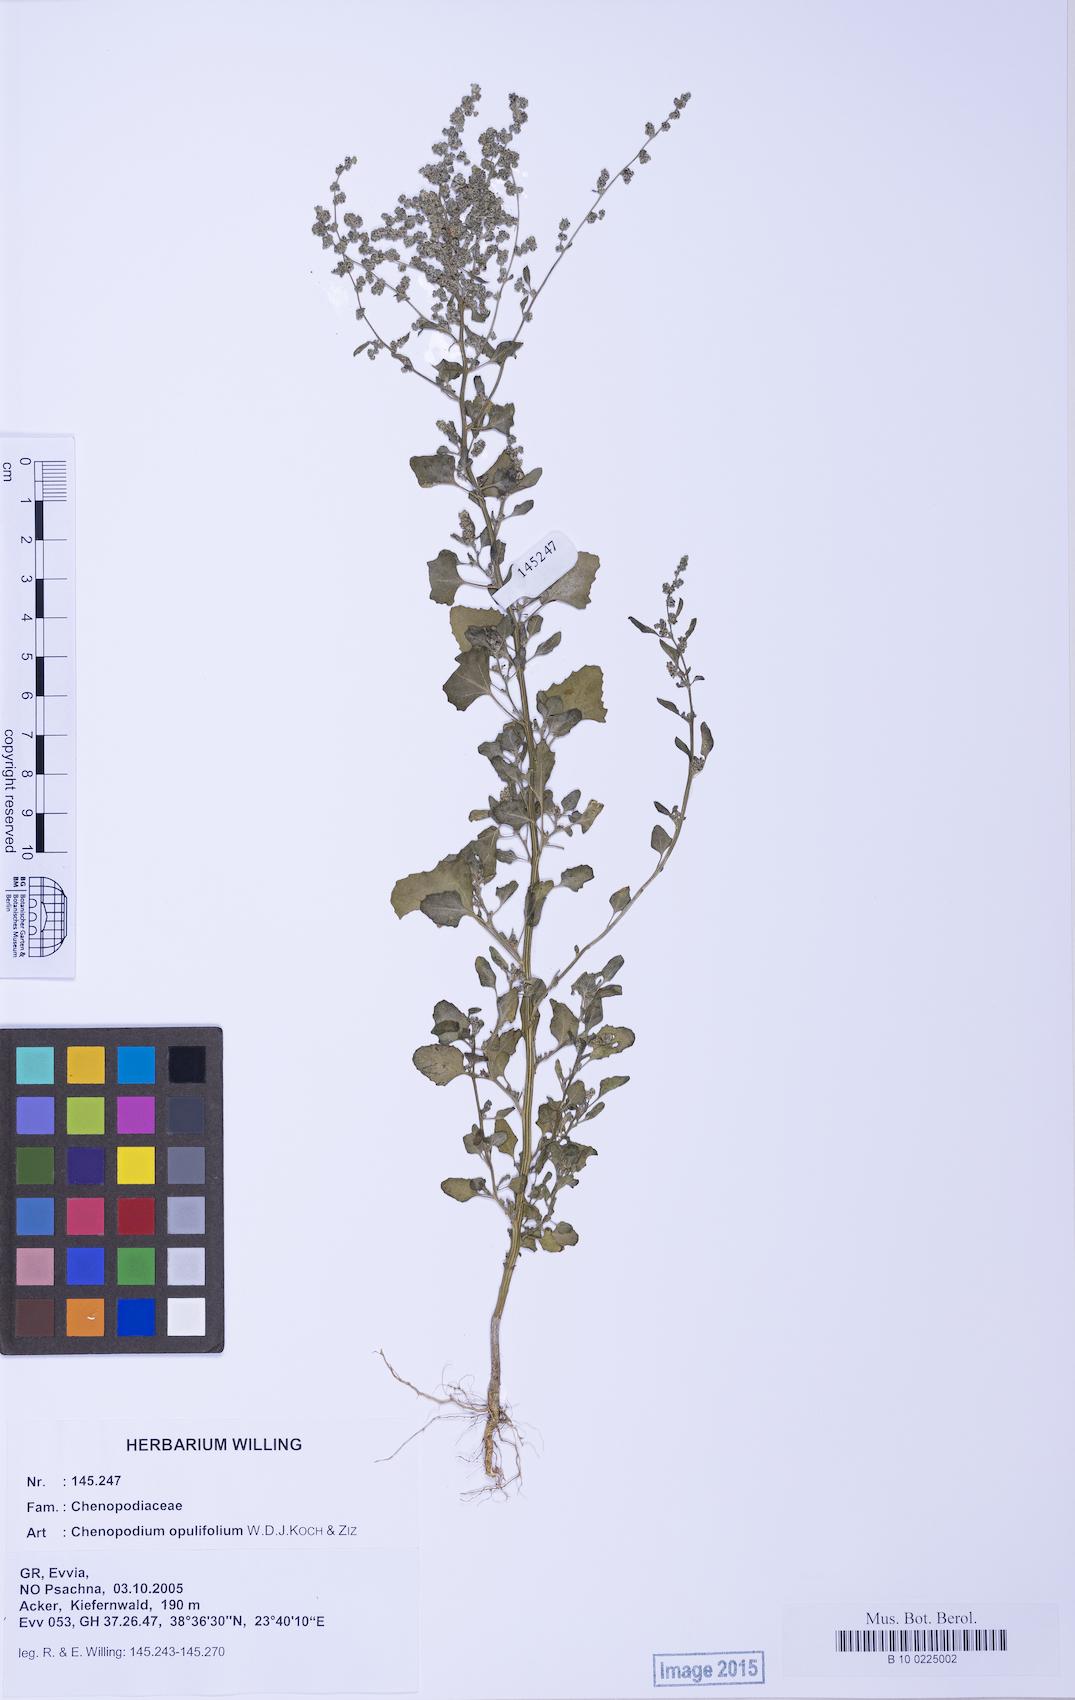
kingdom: Plantae
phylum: Tracheophyta
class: Magnoliopsida
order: Caryophyllales
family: Amaranthaceae
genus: Chenopodium
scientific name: Chenopodium opulifolium
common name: Grey goosefoot
